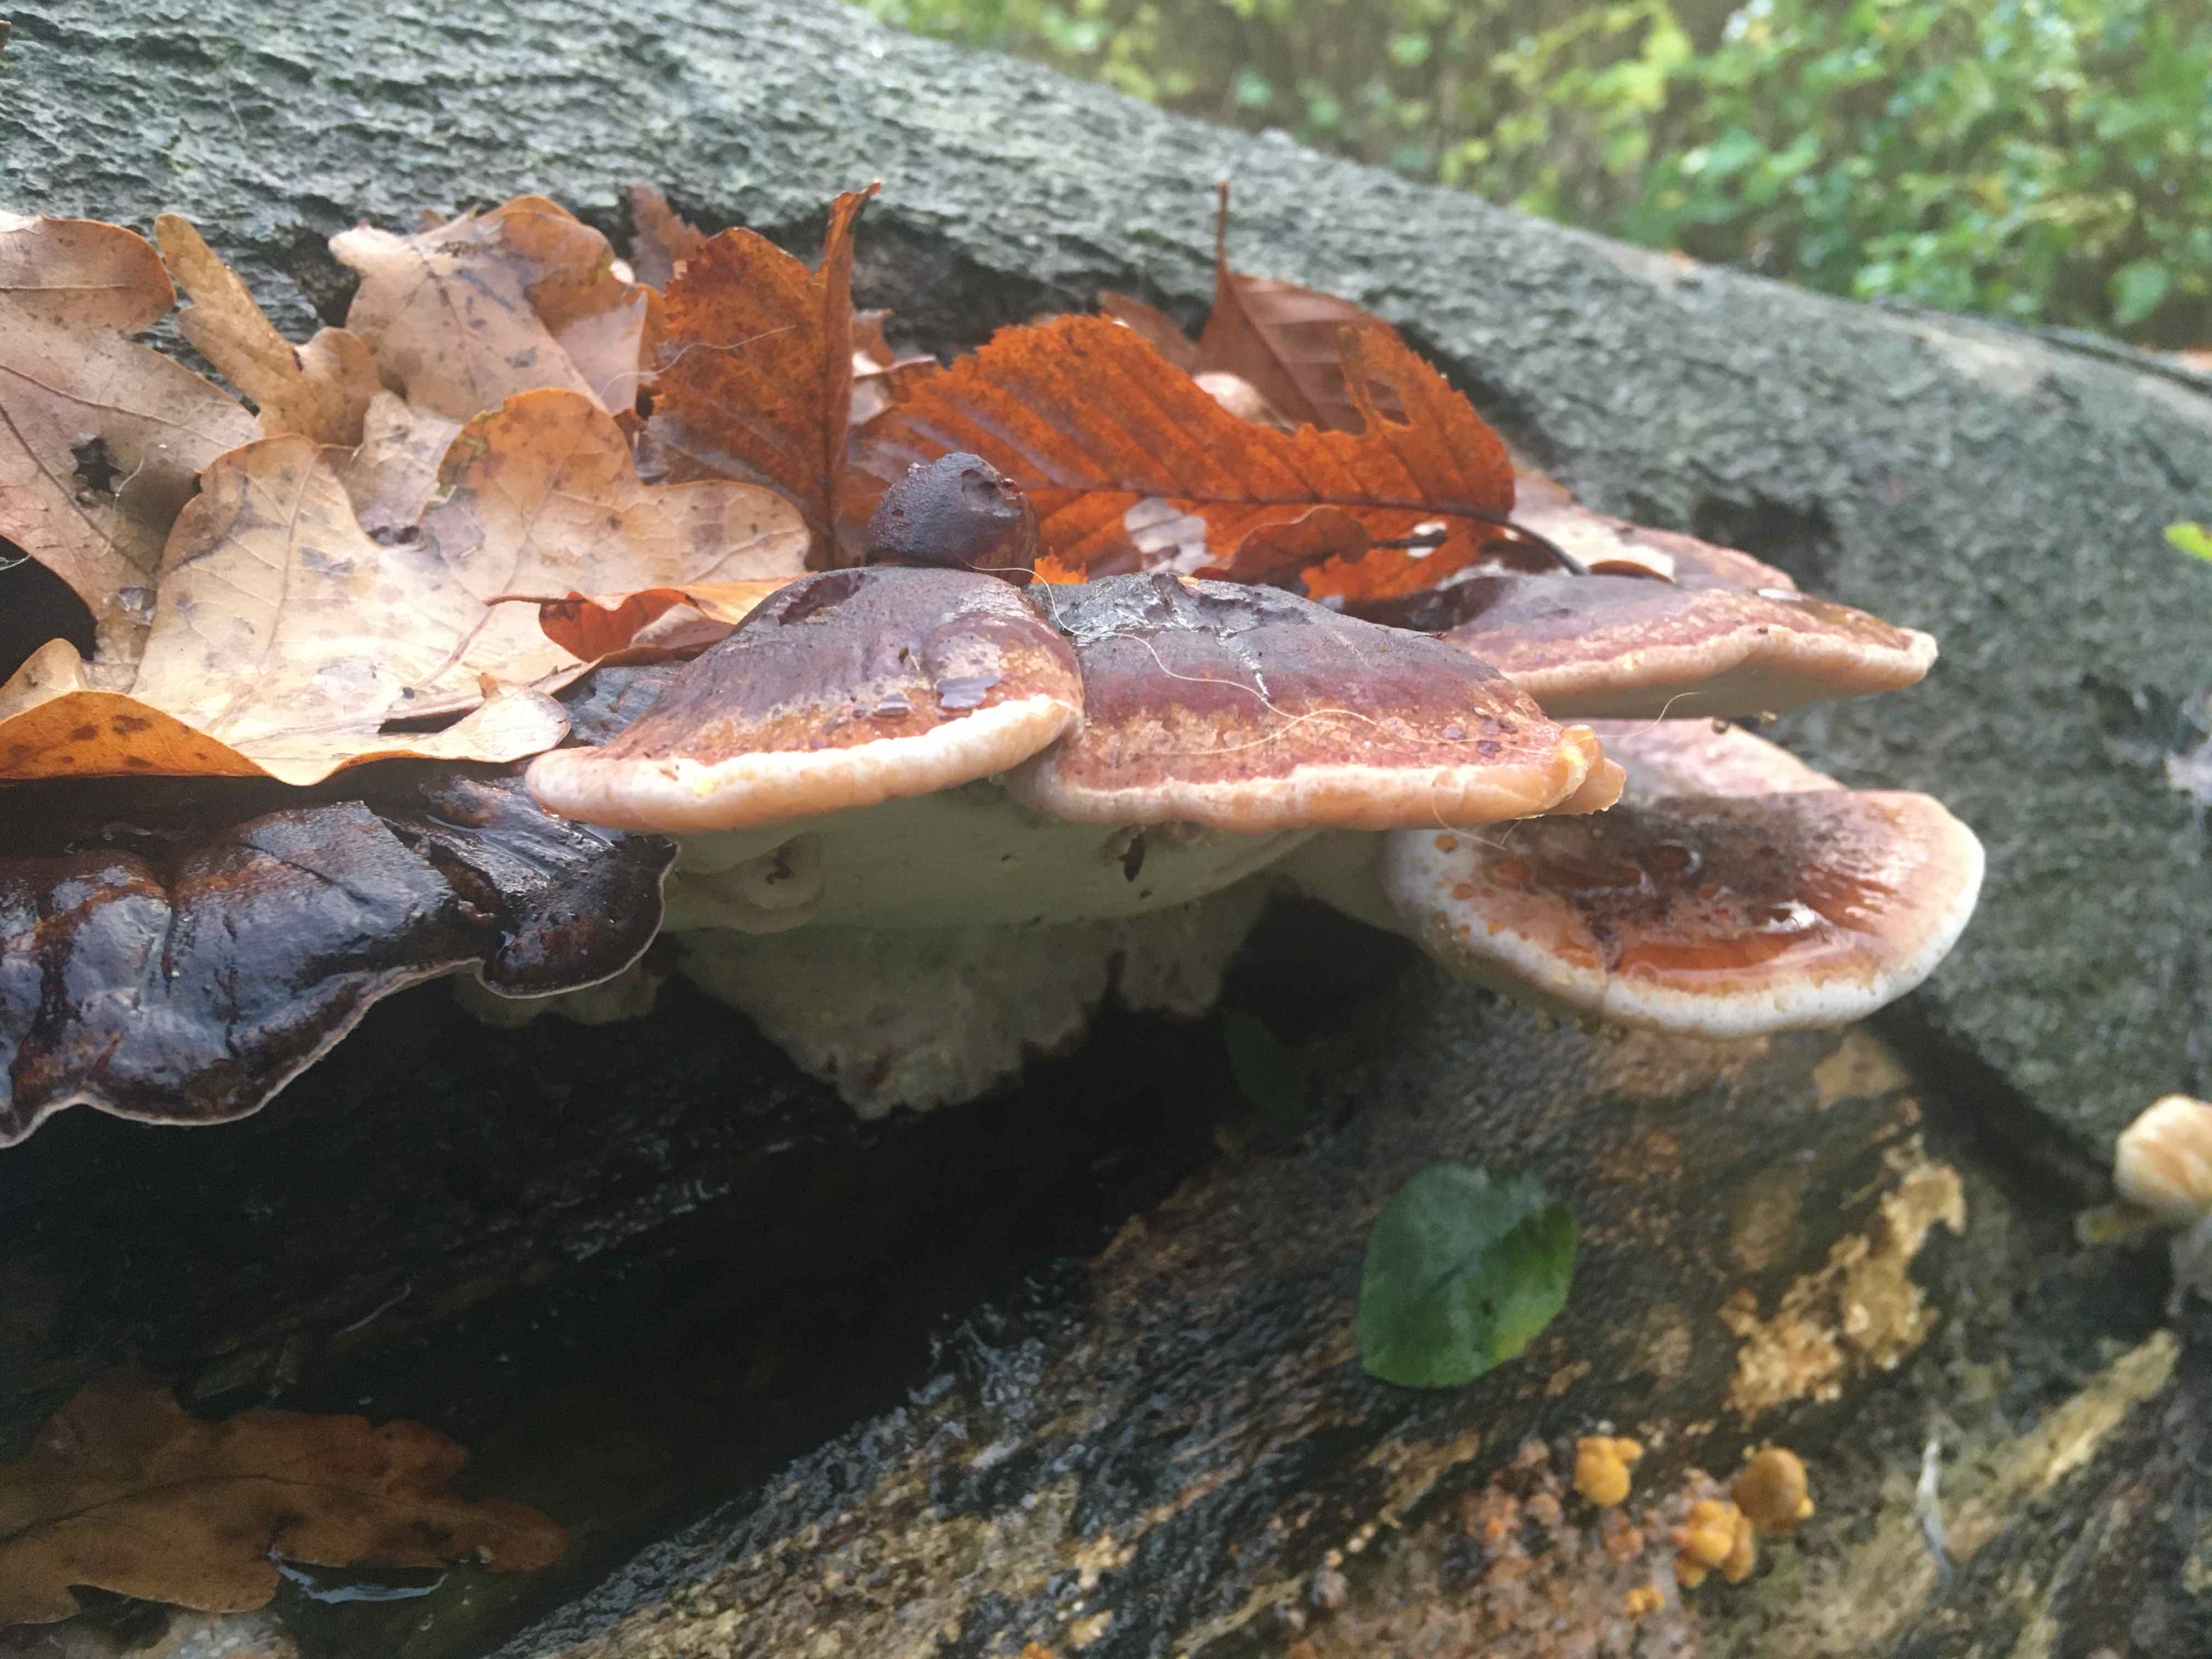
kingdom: Fungi
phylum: Basidiomycota
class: Agaricomycetes
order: Polyporales
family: Ischnodermataceae
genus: Ischnoderma
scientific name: Ischnoderma resinosum
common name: løv-tjæreporesvamp
